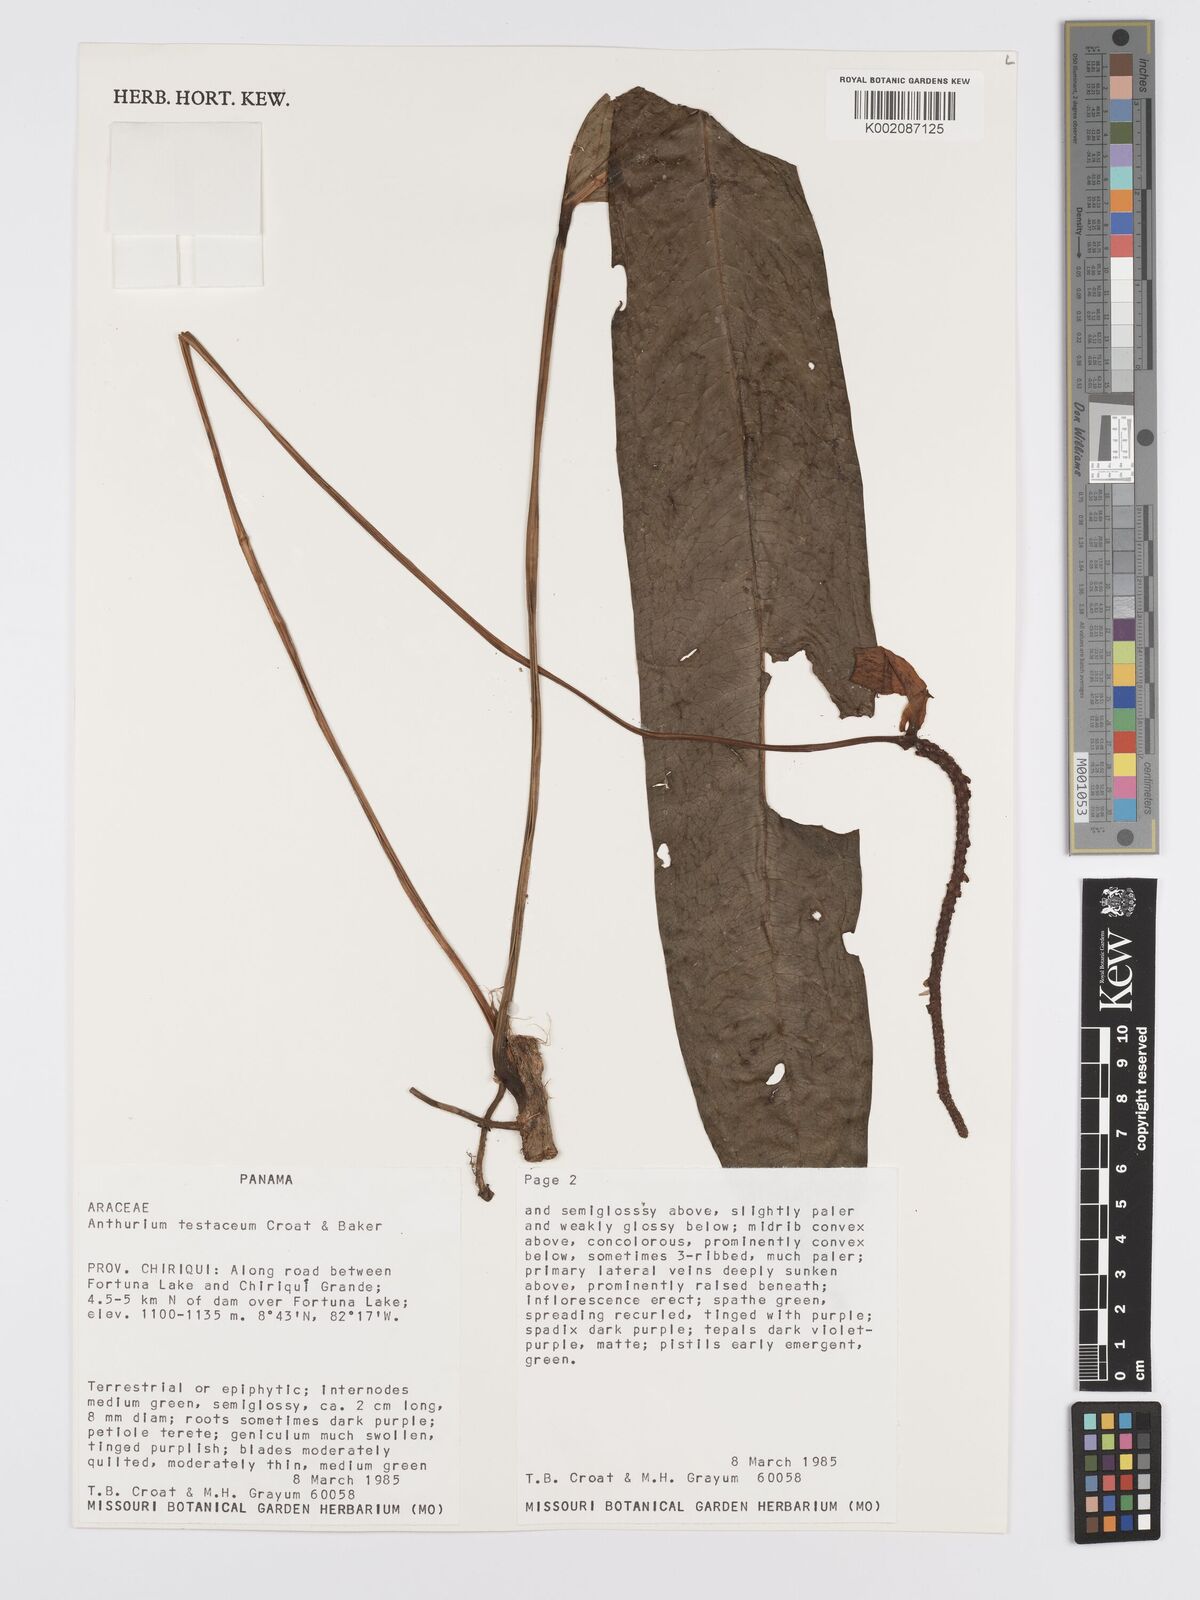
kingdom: Plantae
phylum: Tracheophyta
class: Liliopsida
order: Alismatales
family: Araceae
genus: Anthurium
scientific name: Anthurium testaceum
